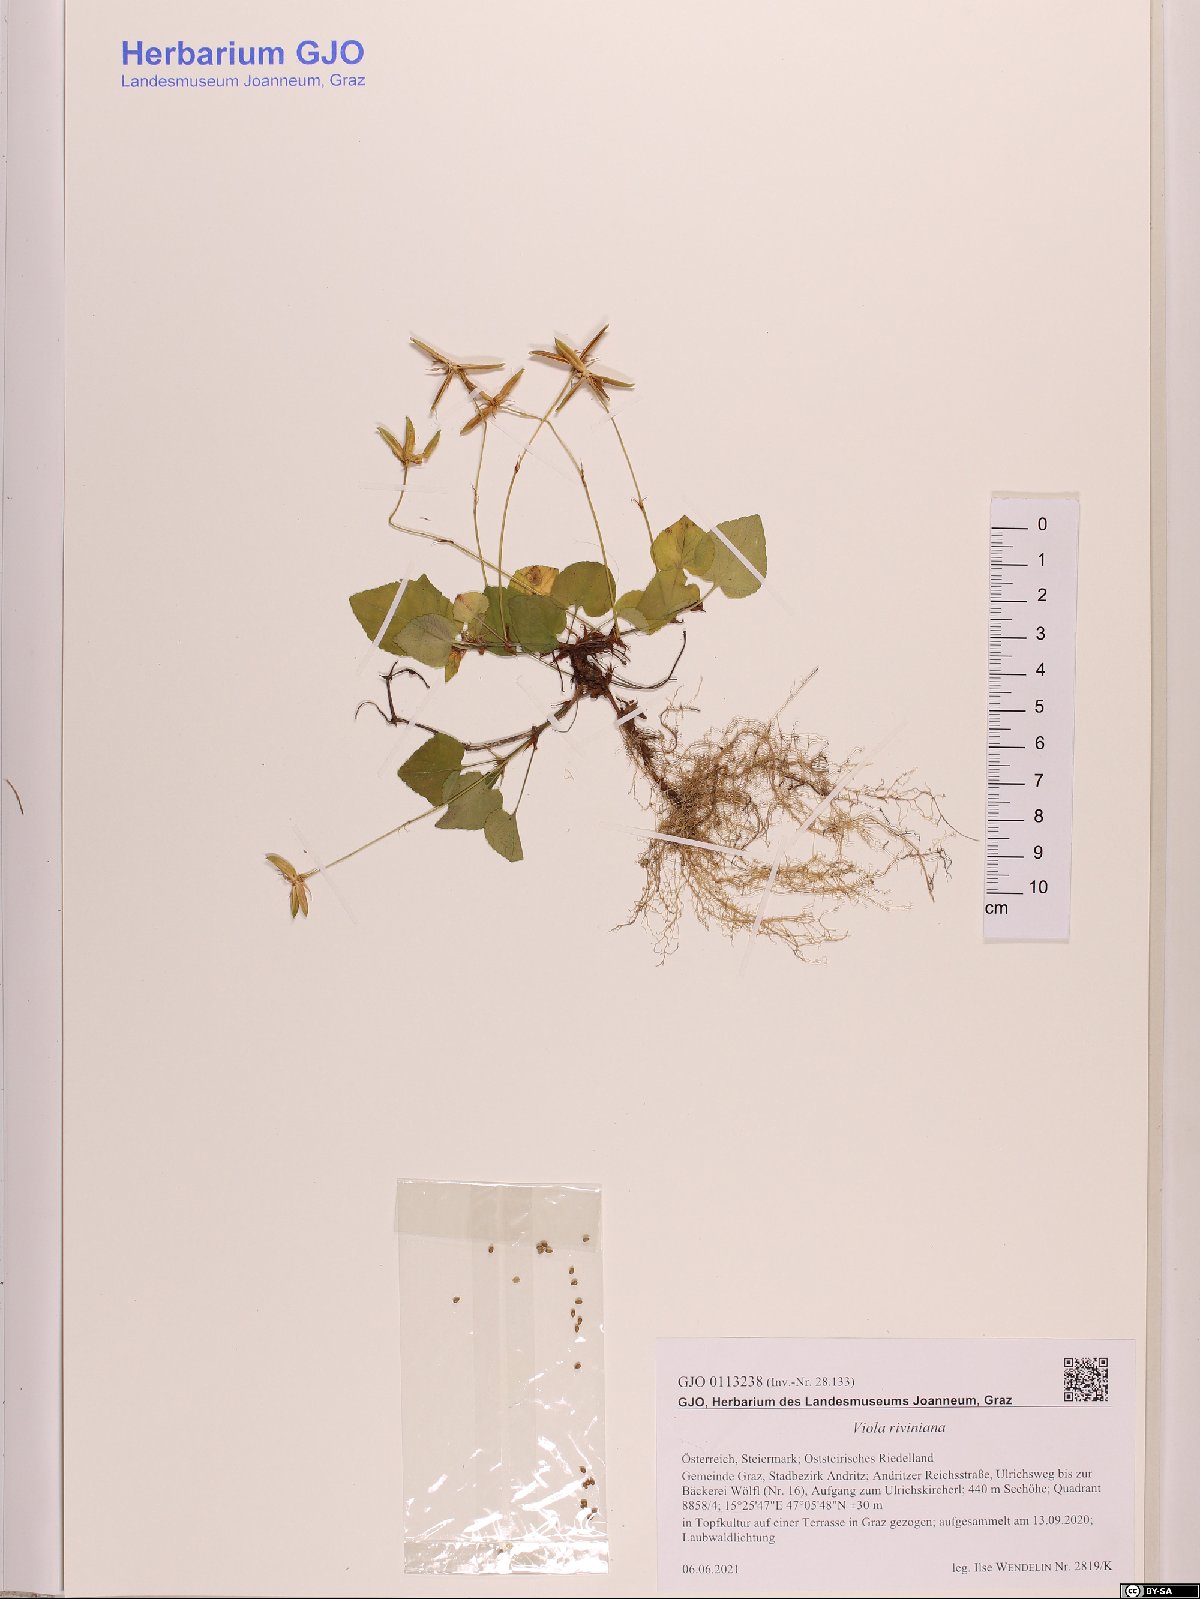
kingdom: Plantae
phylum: Tracheophyta
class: Magnoliopsida
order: Malpighiales
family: Violaceae
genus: Viola
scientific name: Viola riviniana
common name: Common dog-violet
